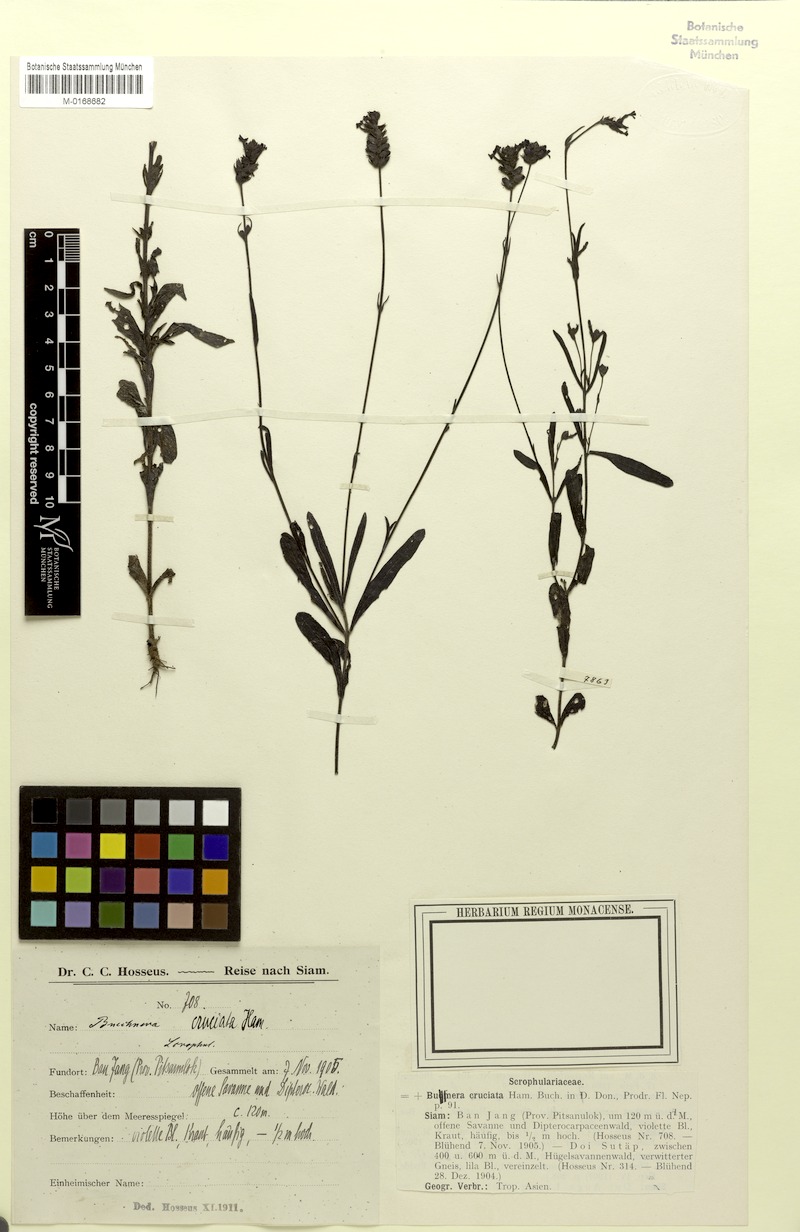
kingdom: Plantae
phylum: Tracheophyta
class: Magnoliopsida
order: Lamiales
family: Orobanchaceae
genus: Buchnera
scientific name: Buchnera cruciata
